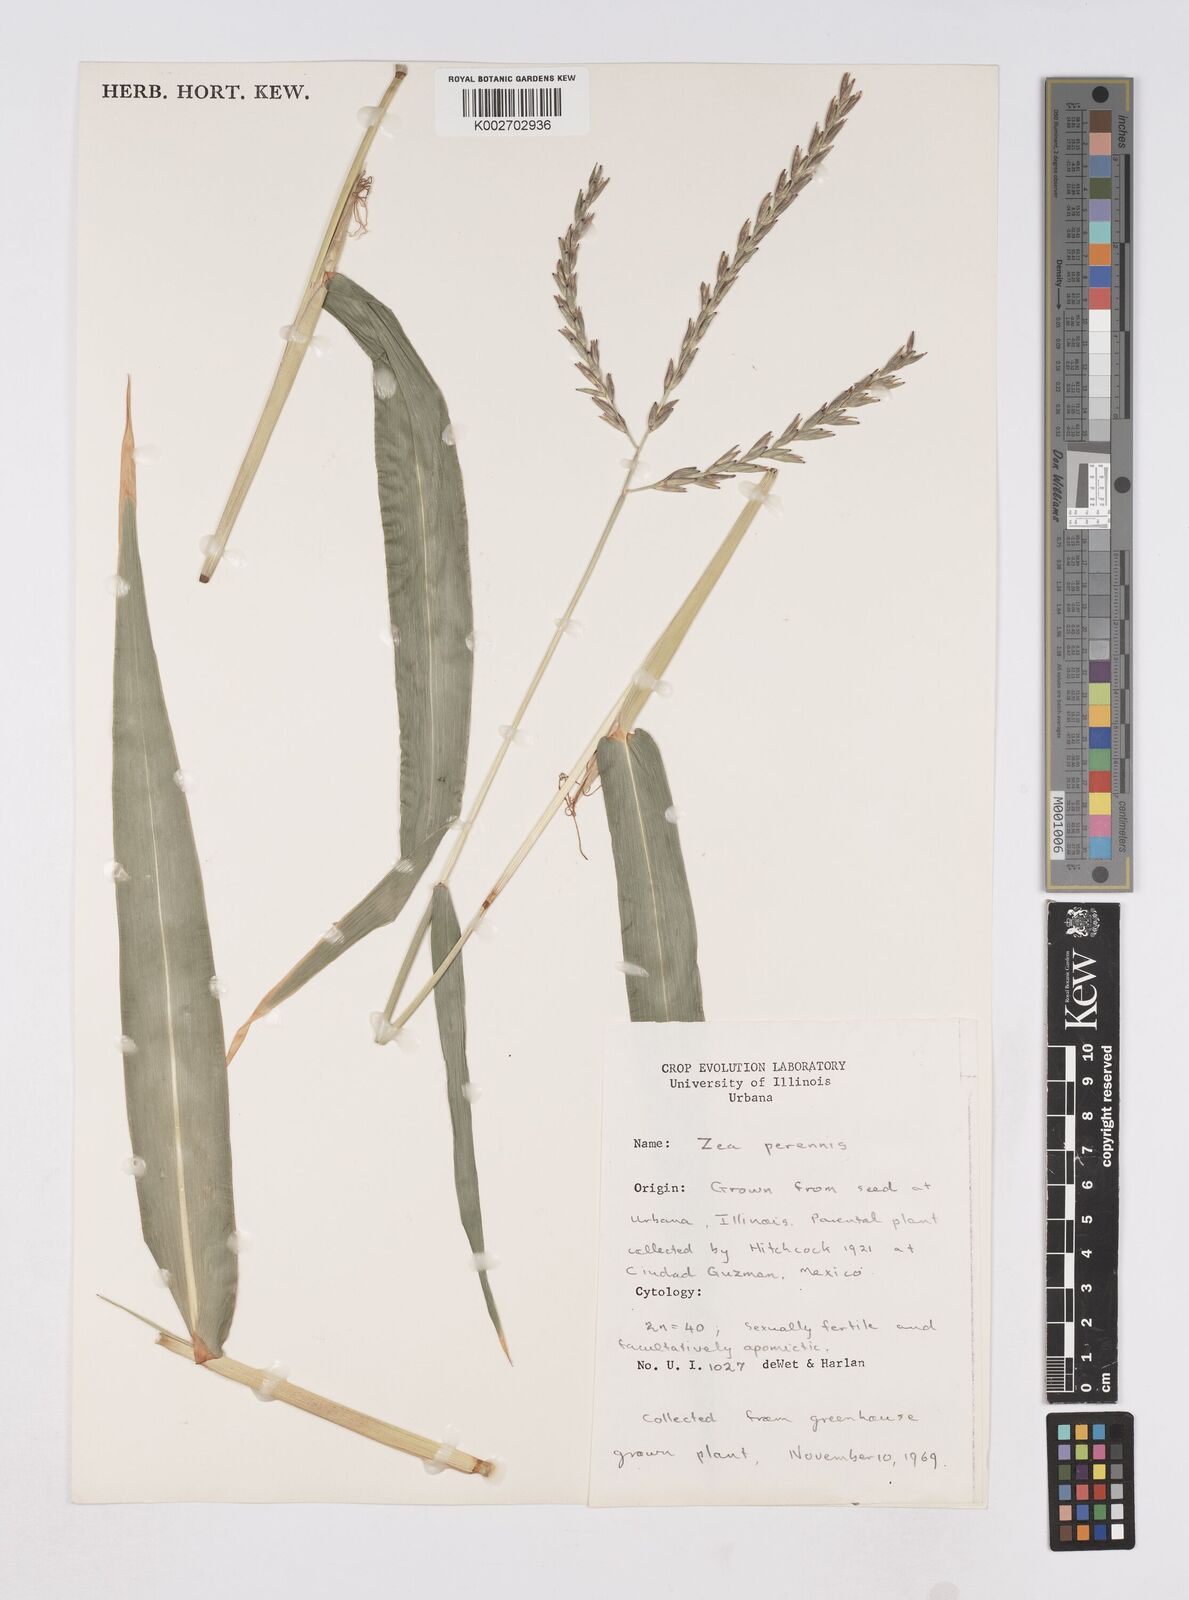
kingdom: Plantae
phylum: Tracheophyta
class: Liliopsida
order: Poales
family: Poaceae
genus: Zea
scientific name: Zea perennis
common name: Perennial teosinte
